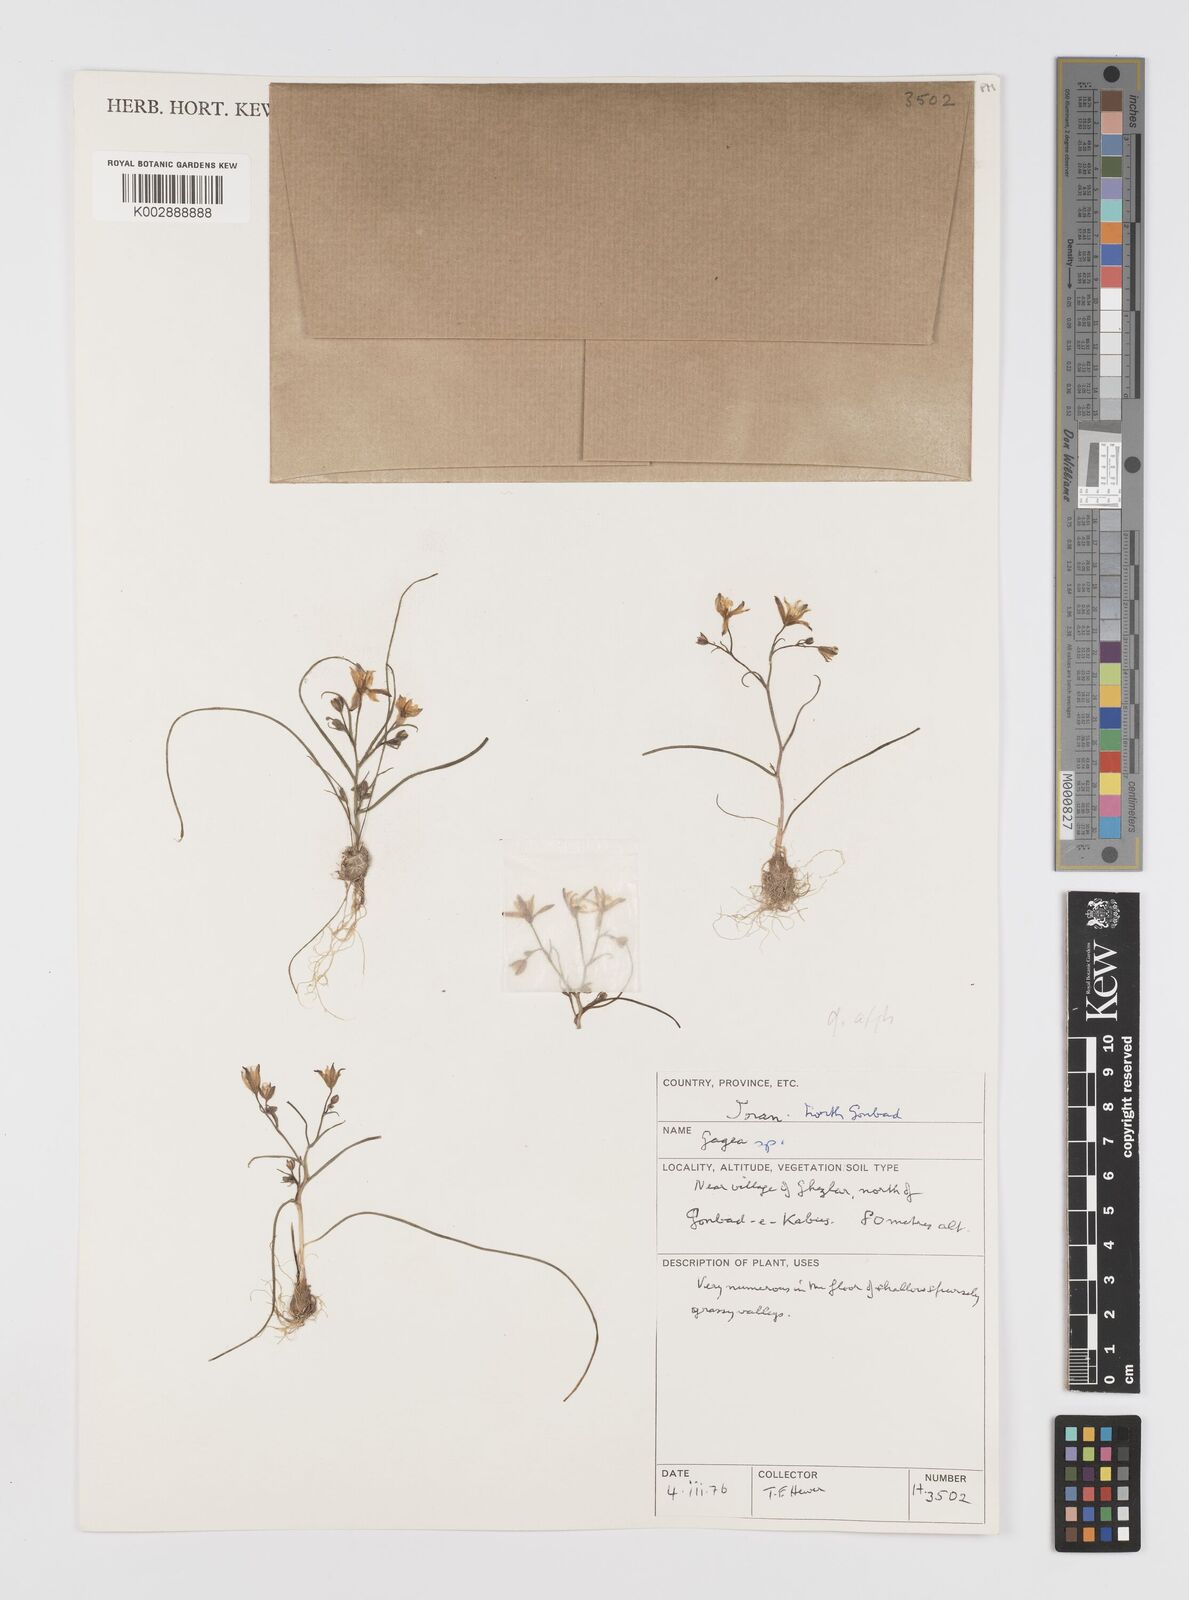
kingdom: Plantae
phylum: Tracheophyta
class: Liliopsida
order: Liliales
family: Liliaceae
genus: Gagea
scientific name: Gagea
